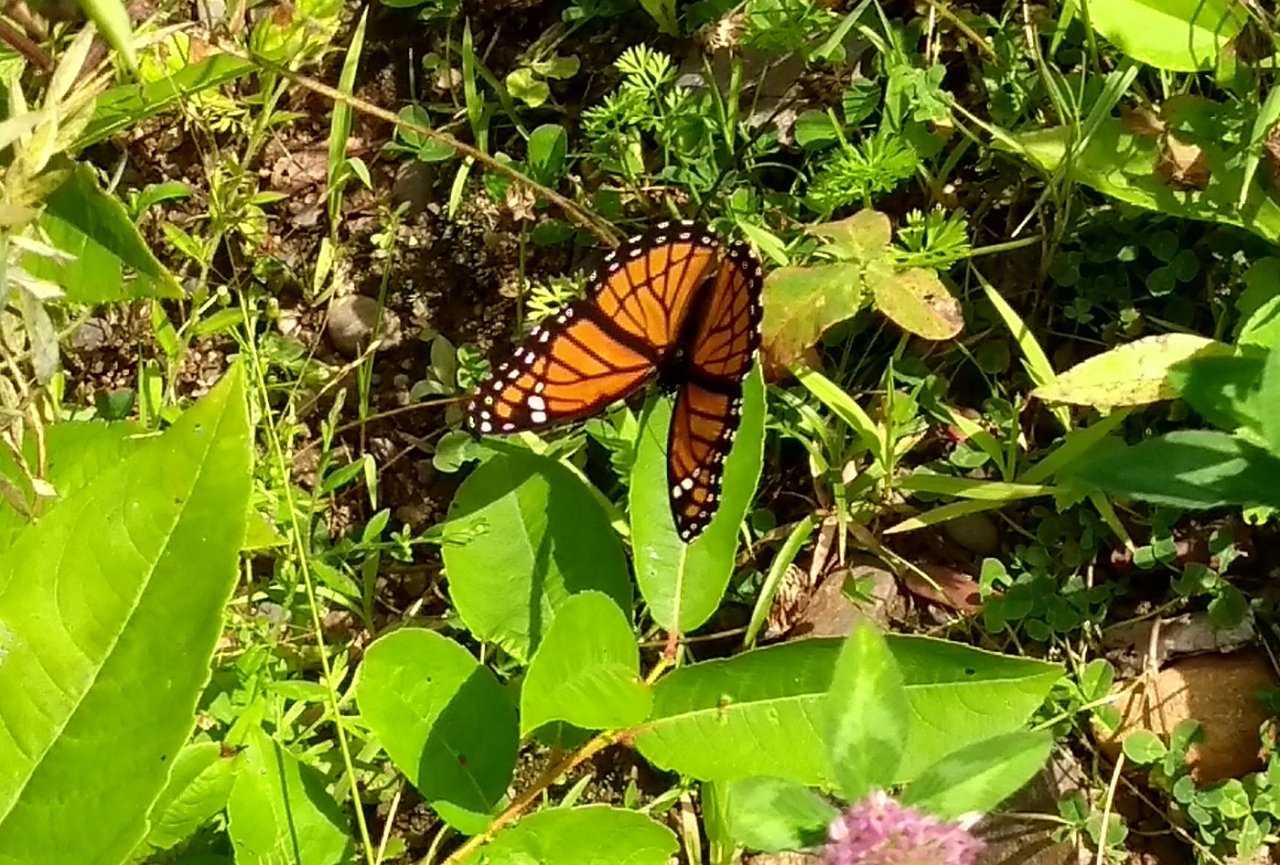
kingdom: Animalia
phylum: Arthropoda
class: Insecta
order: Lepidoptera
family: Nymphalidae
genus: Limenitis
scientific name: Limenitis archippus
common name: Viceroy
